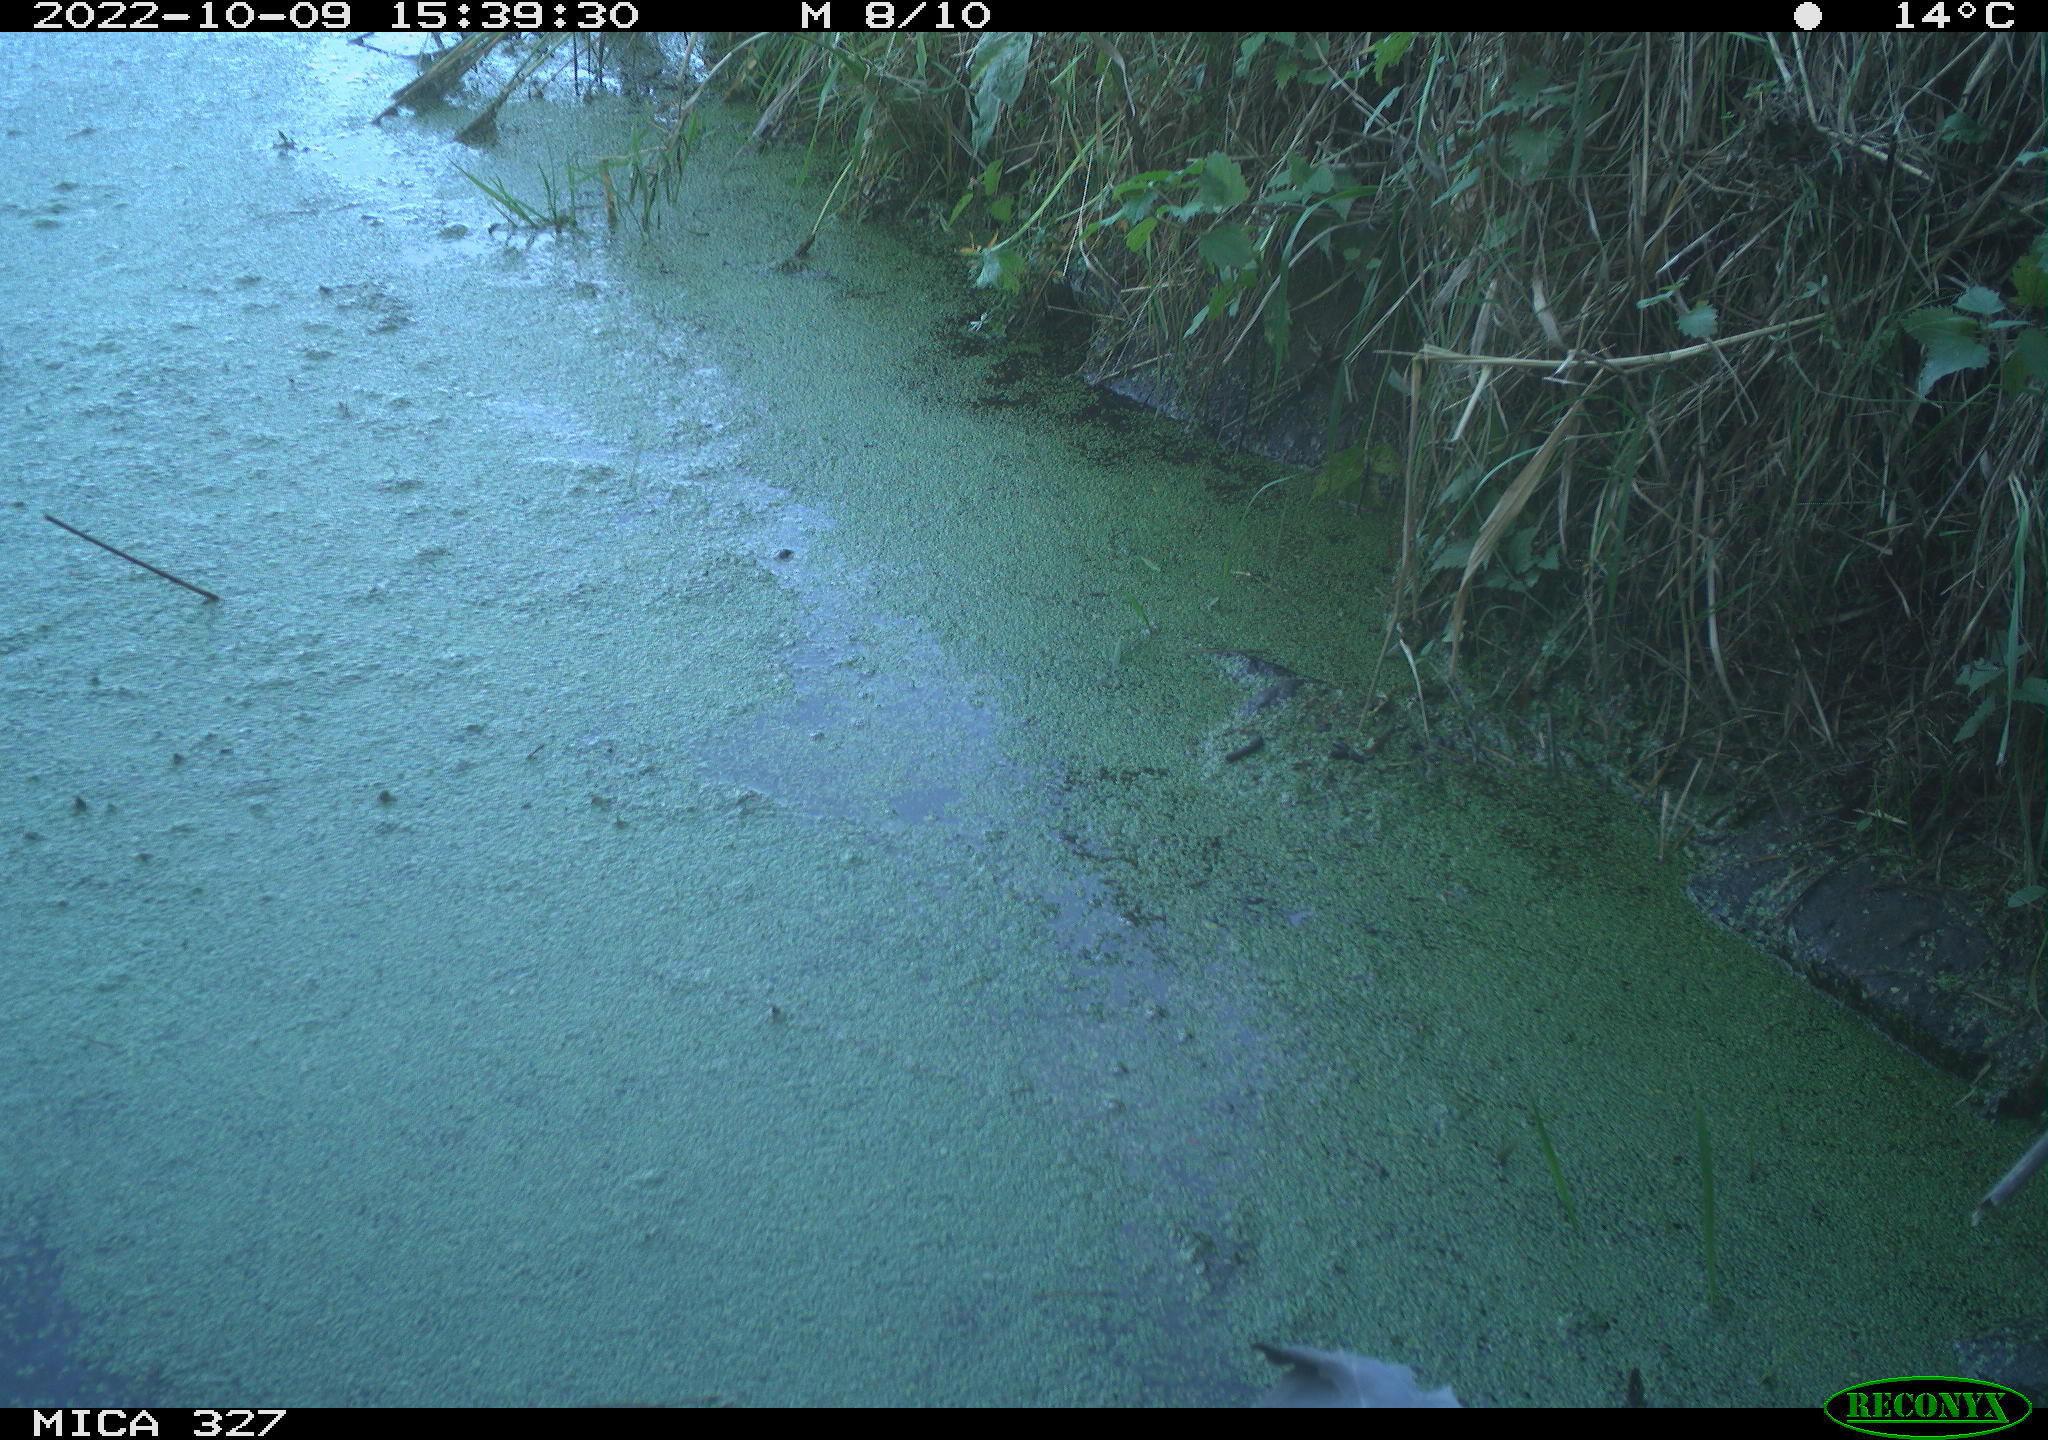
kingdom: Animalia
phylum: Chordata
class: Aves
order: Pelecaniformes
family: Ardeidae
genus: Ardea
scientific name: Ardea cinerea
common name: Grey heron
